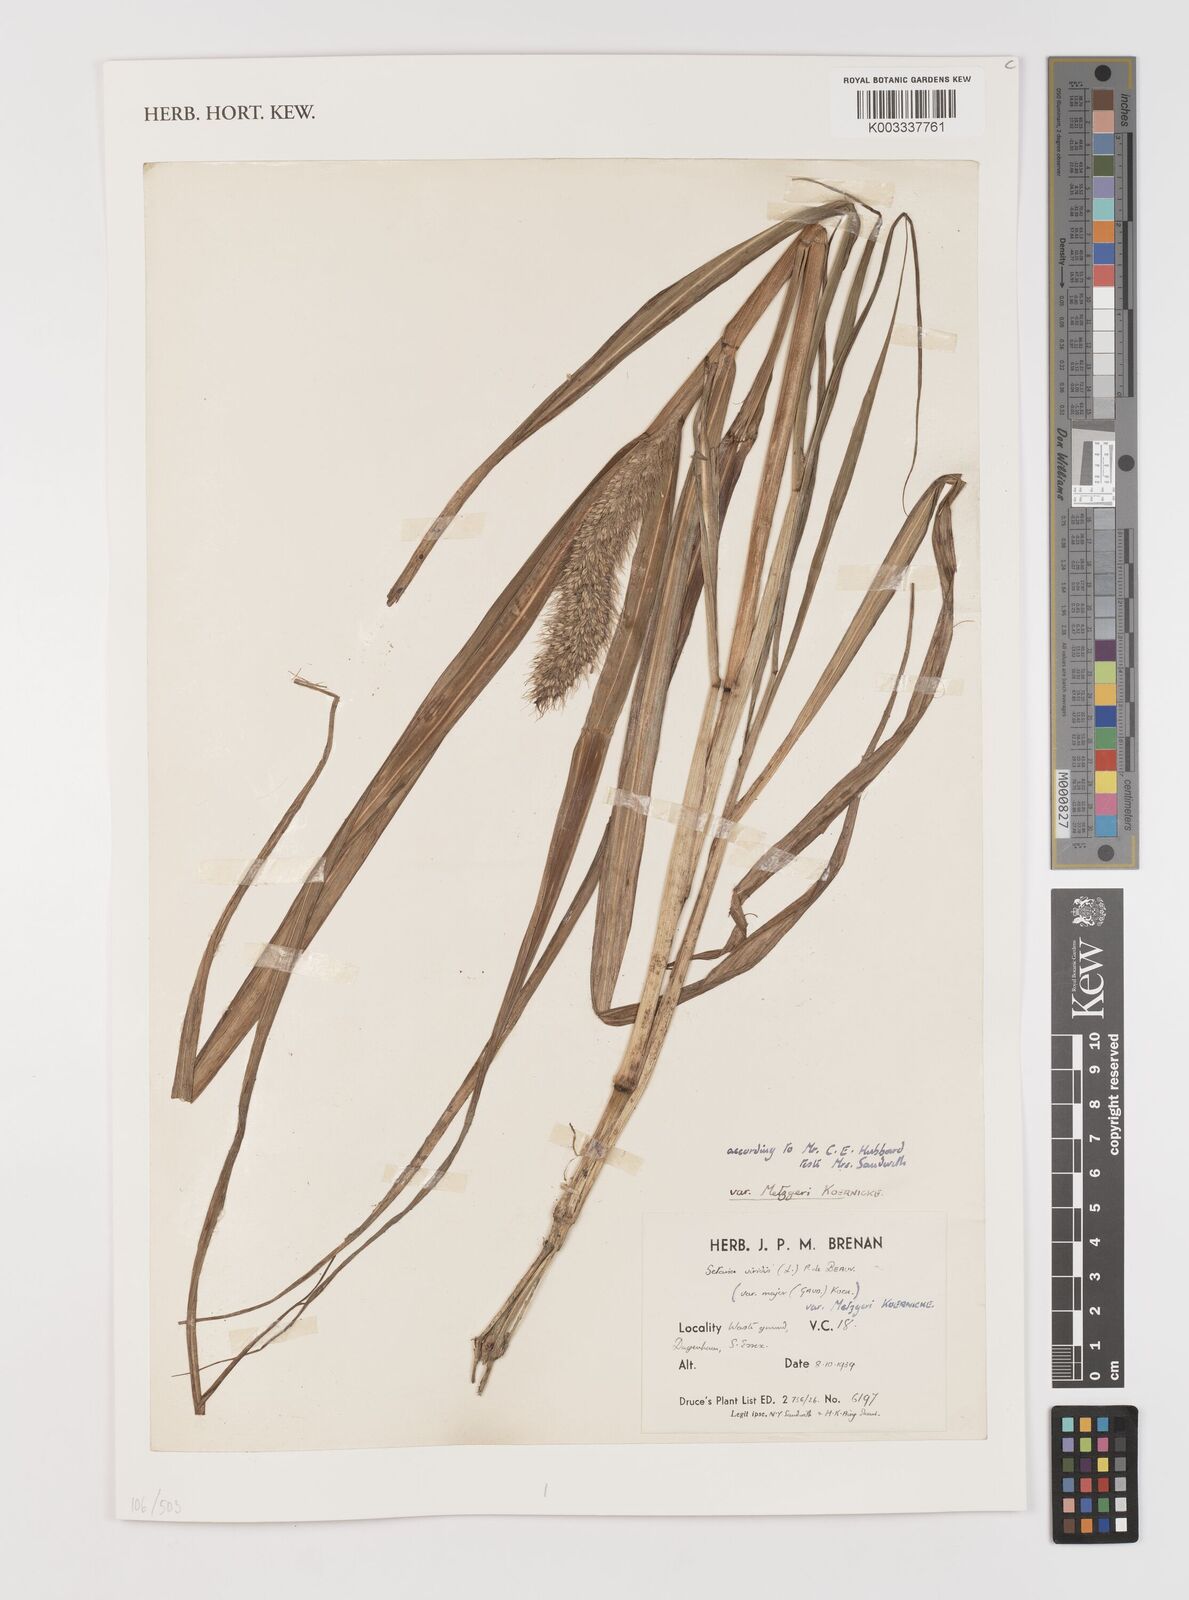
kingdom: Plantae
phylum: Tracheophyta
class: Liliopsida
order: Poales
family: Poaceae
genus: Setaria
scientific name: Setaria viridis
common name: Green bristlegrass
